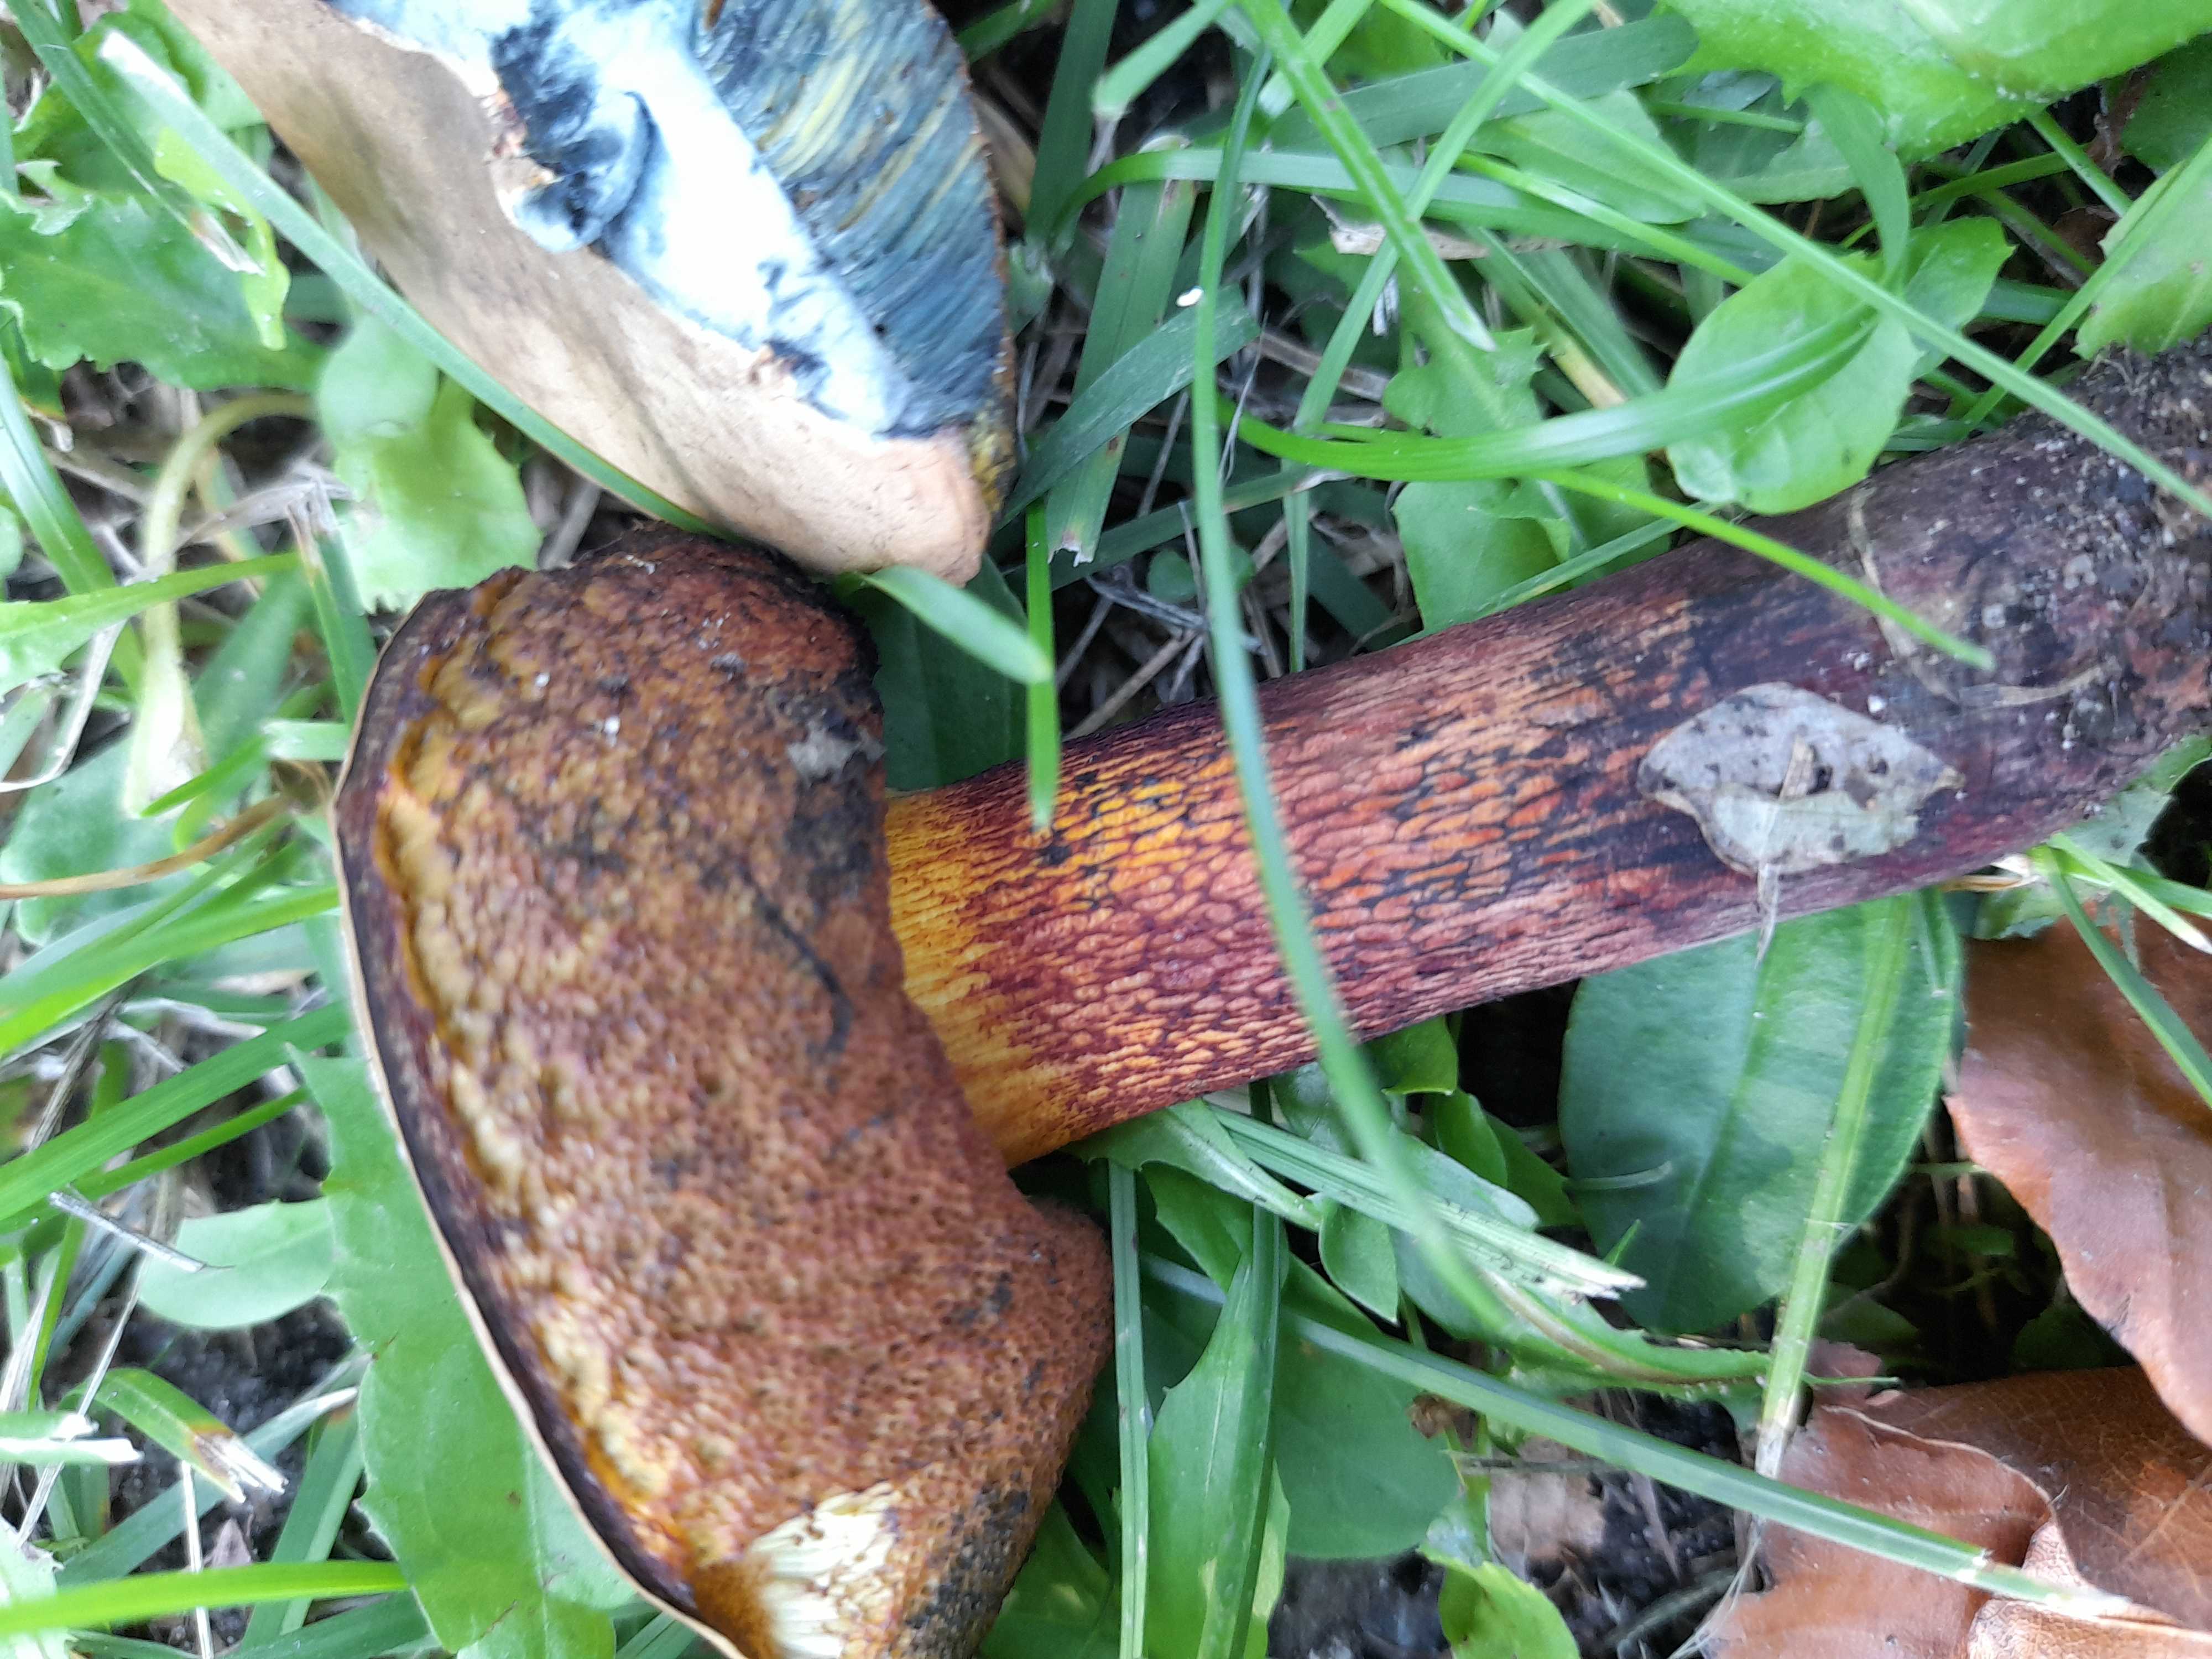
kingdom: Fungi
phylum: Basidiomycota
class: Agaricomycetes
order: Boletales
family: Boletaceae
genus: Suillellus
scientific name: Suillellus luridus
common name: netstokket indigorørhat
